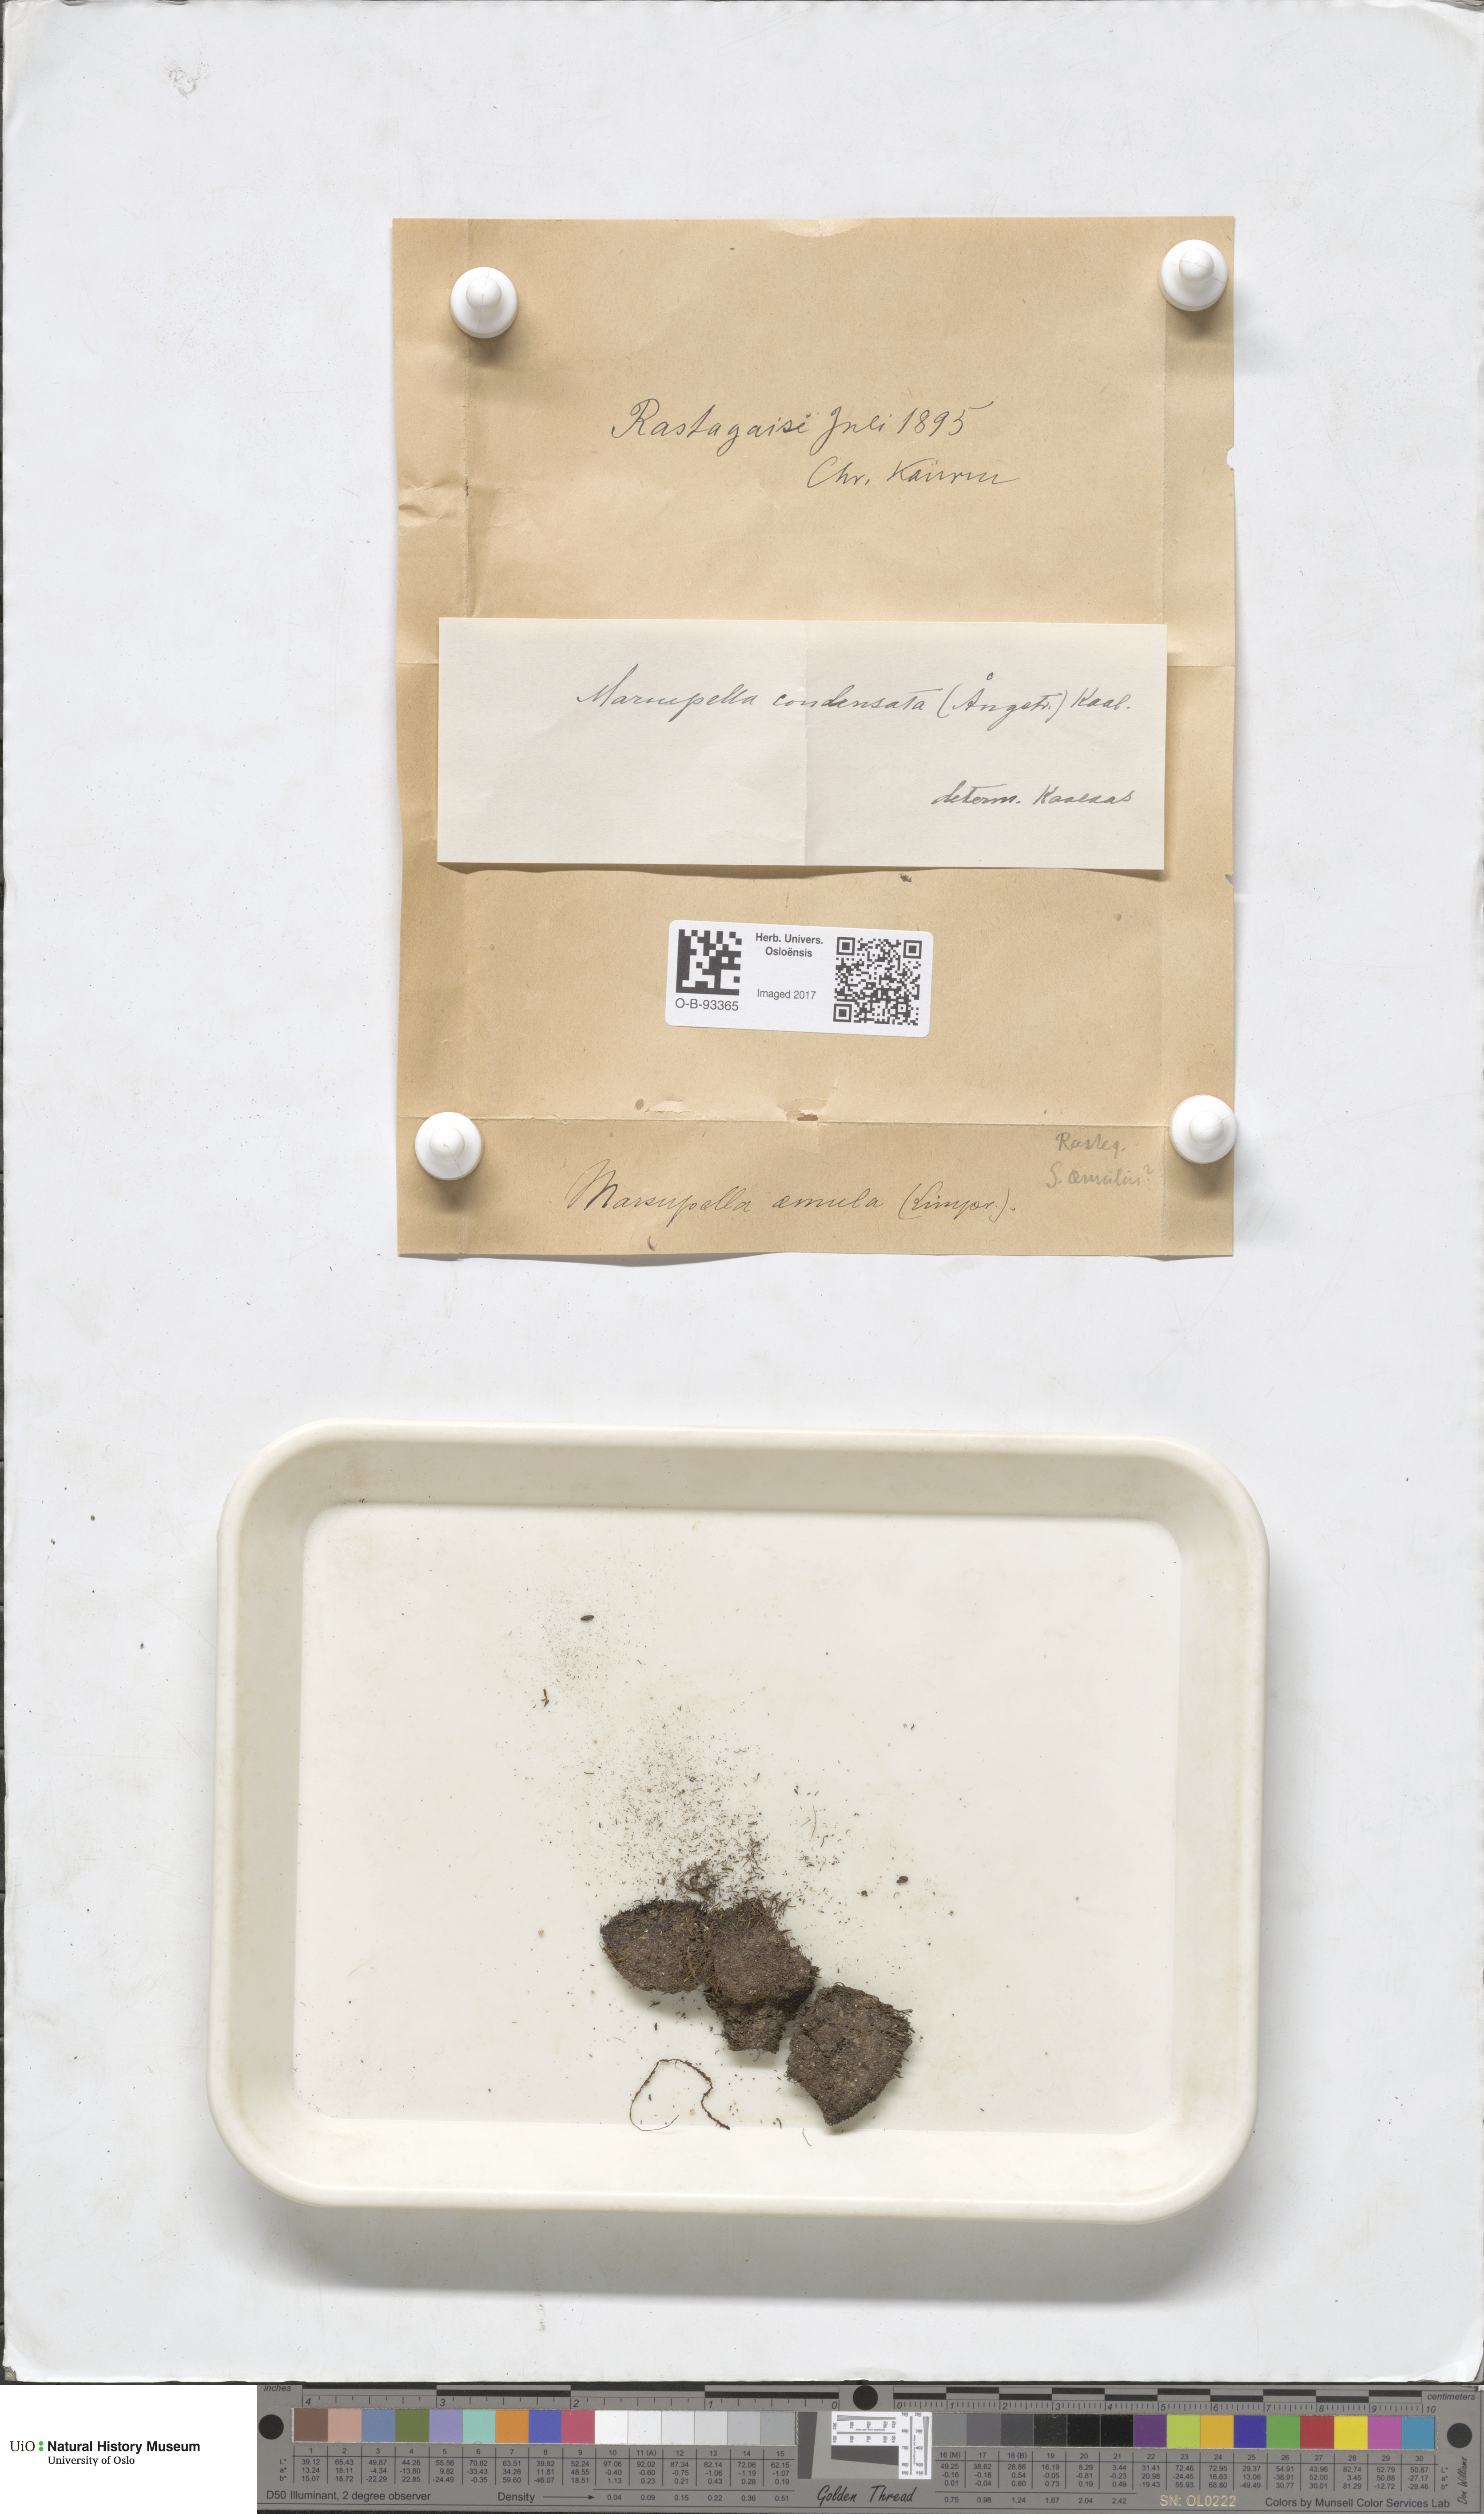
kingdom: Plantae
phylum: Marchantiophyta
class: Jungermanniopsida
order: Jungermanniales
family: Gymnomitriaceae
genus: Gymnomitrion
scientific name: Gymnomitrion brevissimum
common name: Snow rustwort
